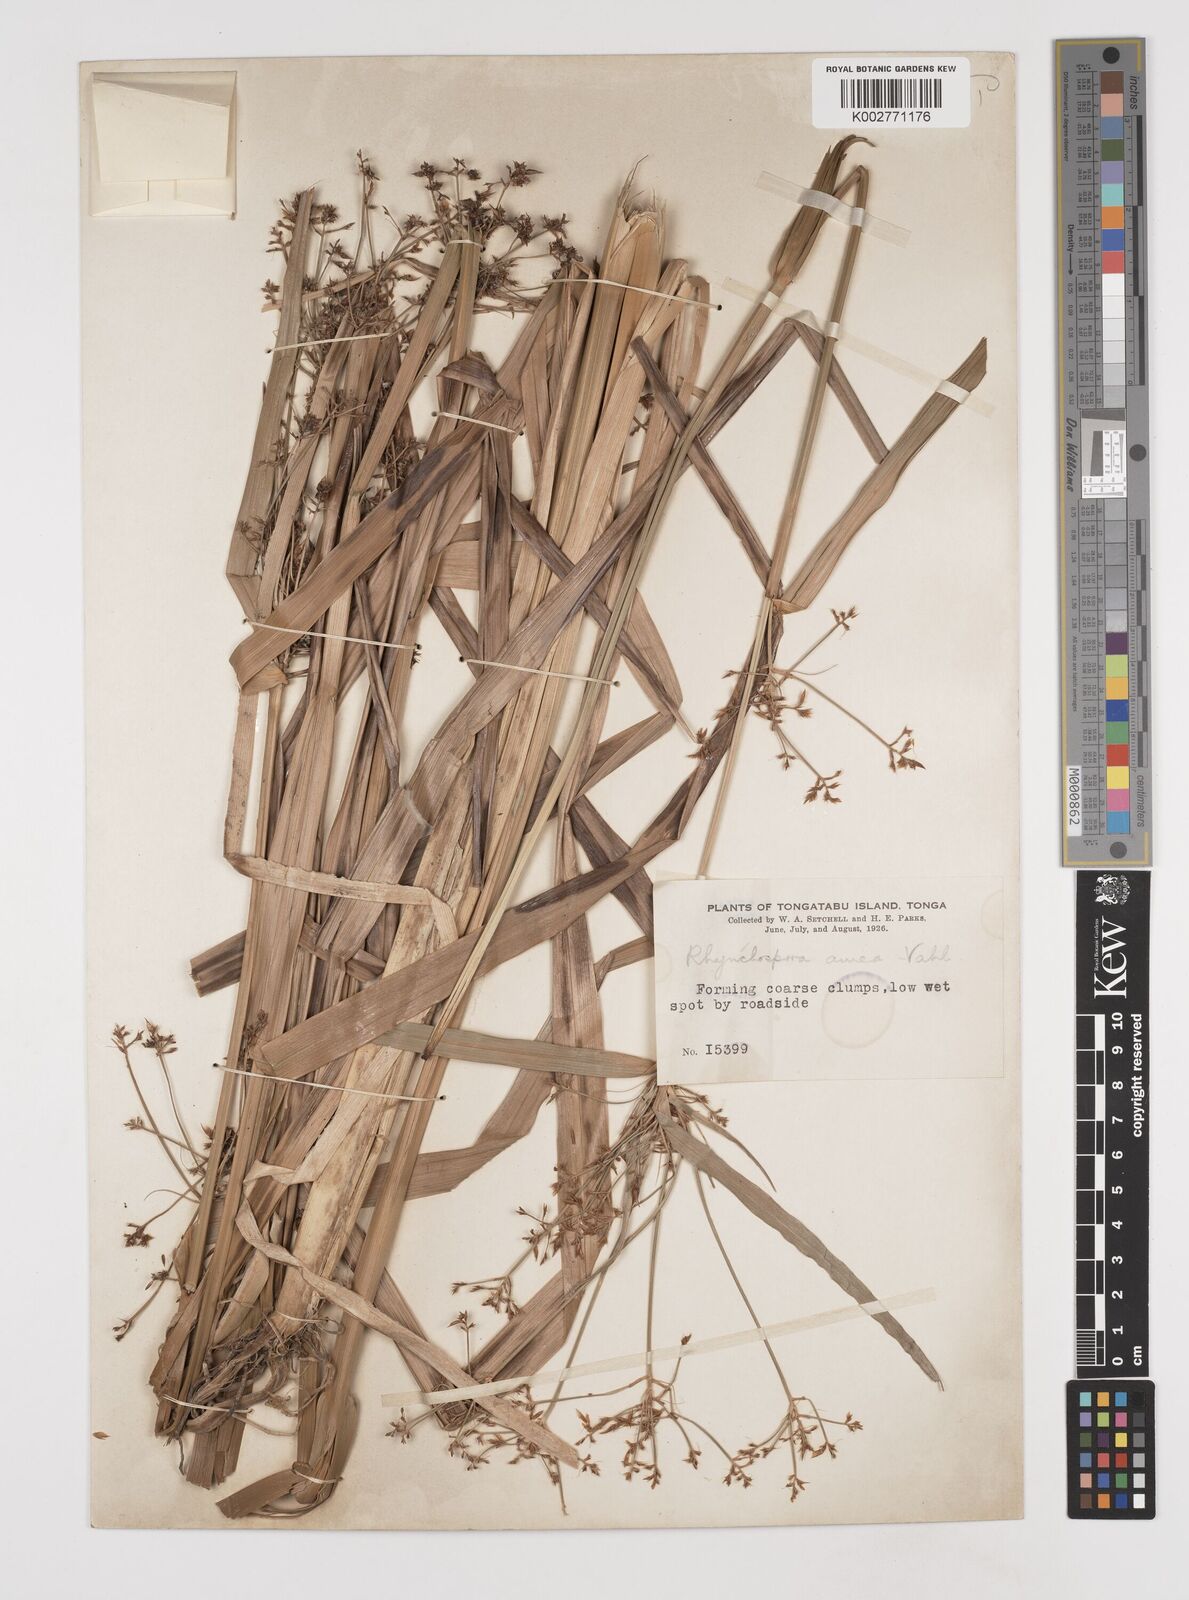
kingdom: Plantae
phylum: Tracheophyta
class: Liliopsida
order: Poales
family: Cyperaceae
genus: Rhynchospora
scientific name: Rhynchospora corymbosa
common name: Golden beak sedge
